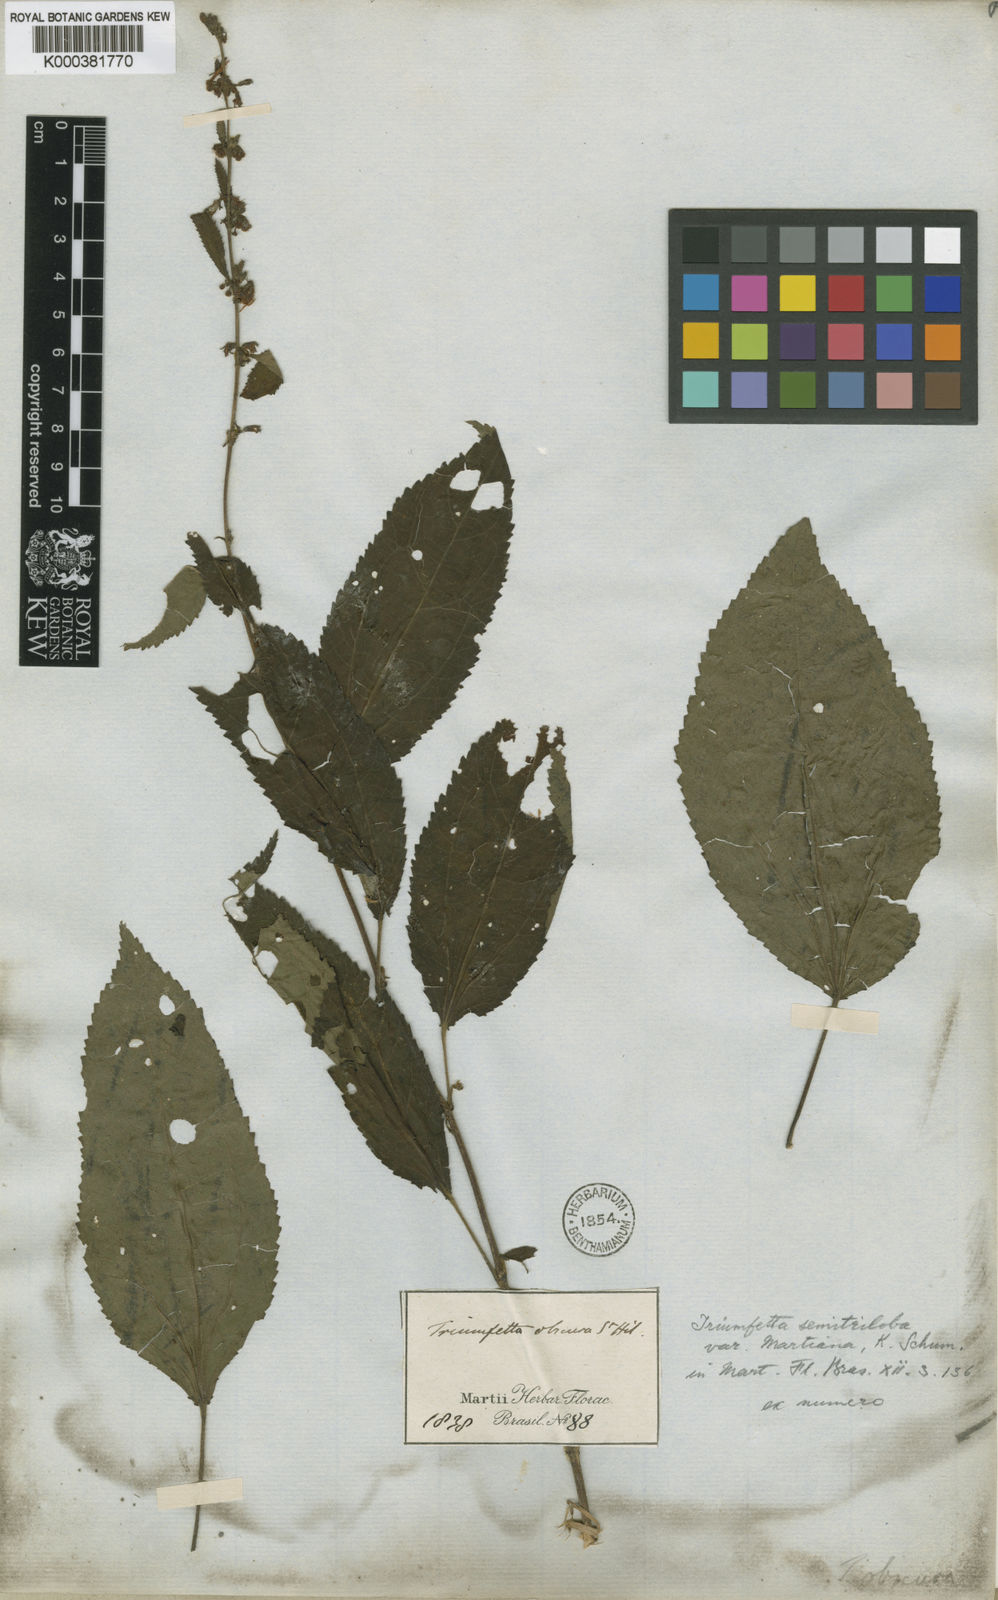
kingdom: Plantae
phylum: Tracheophyta
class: Magnoliopsida
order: Malvales
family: Malvaceae
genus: Triumfetta
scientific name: Triumfetta semitriloba
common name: Sacramento burbark
